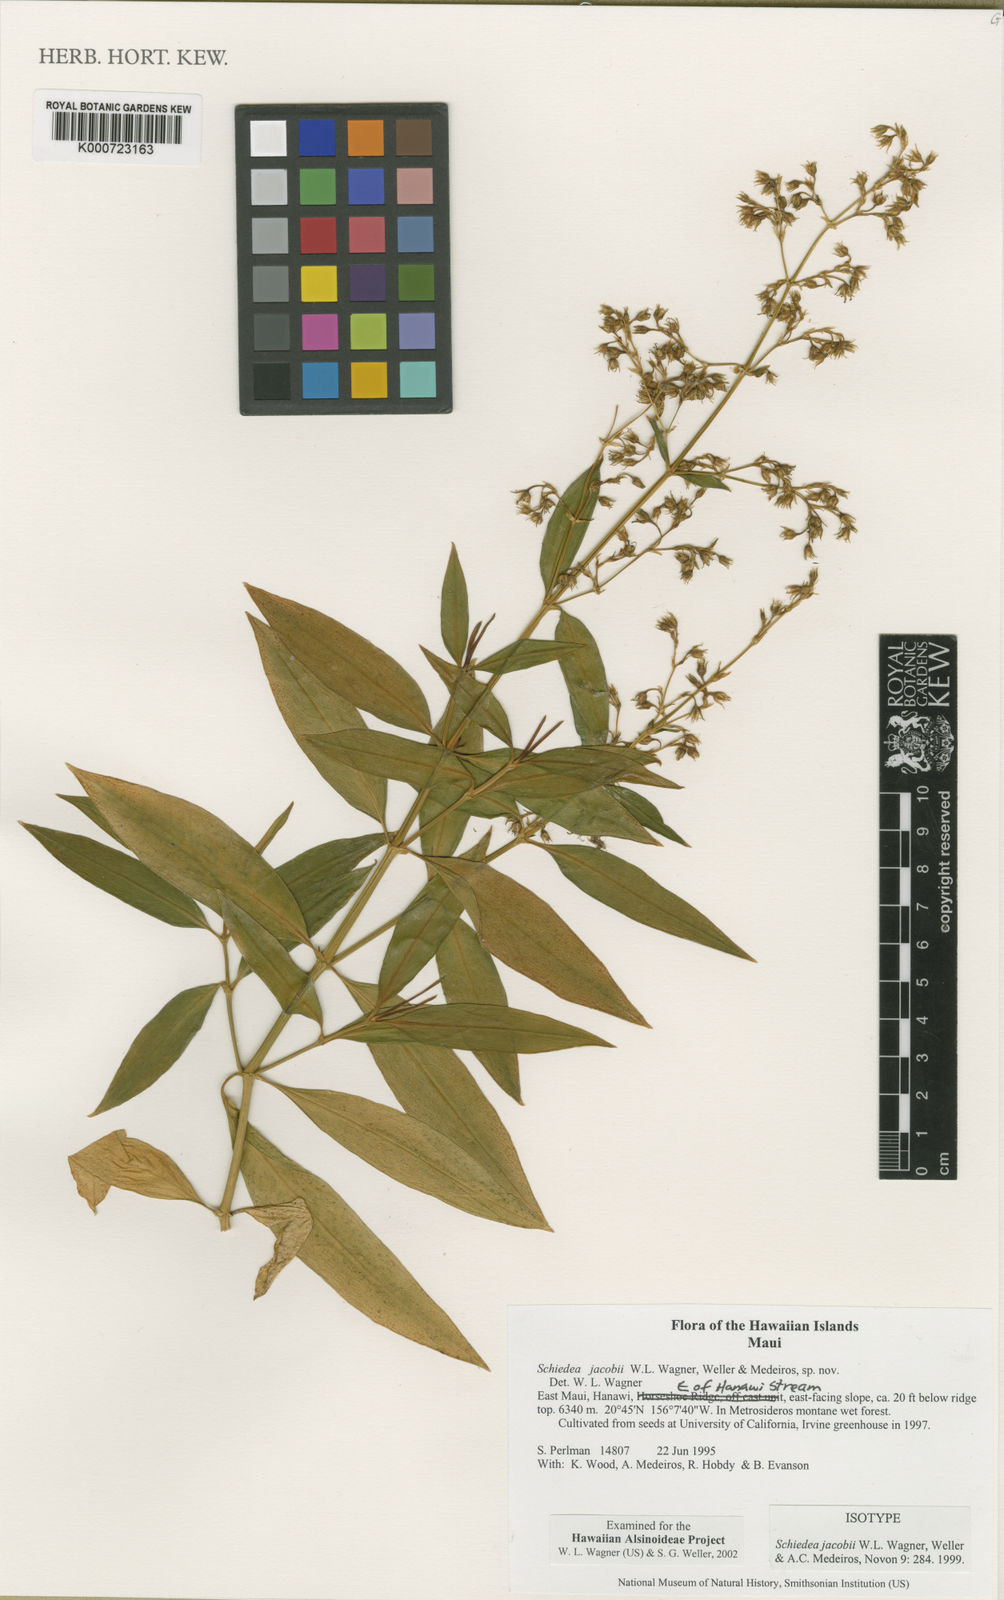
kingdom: Plantae
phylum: Tracheophyta
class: Magnoliopsida
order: Caryophyllales
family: Caryophyllaceae
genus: Schiedea
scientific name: Schiedea jacobii
